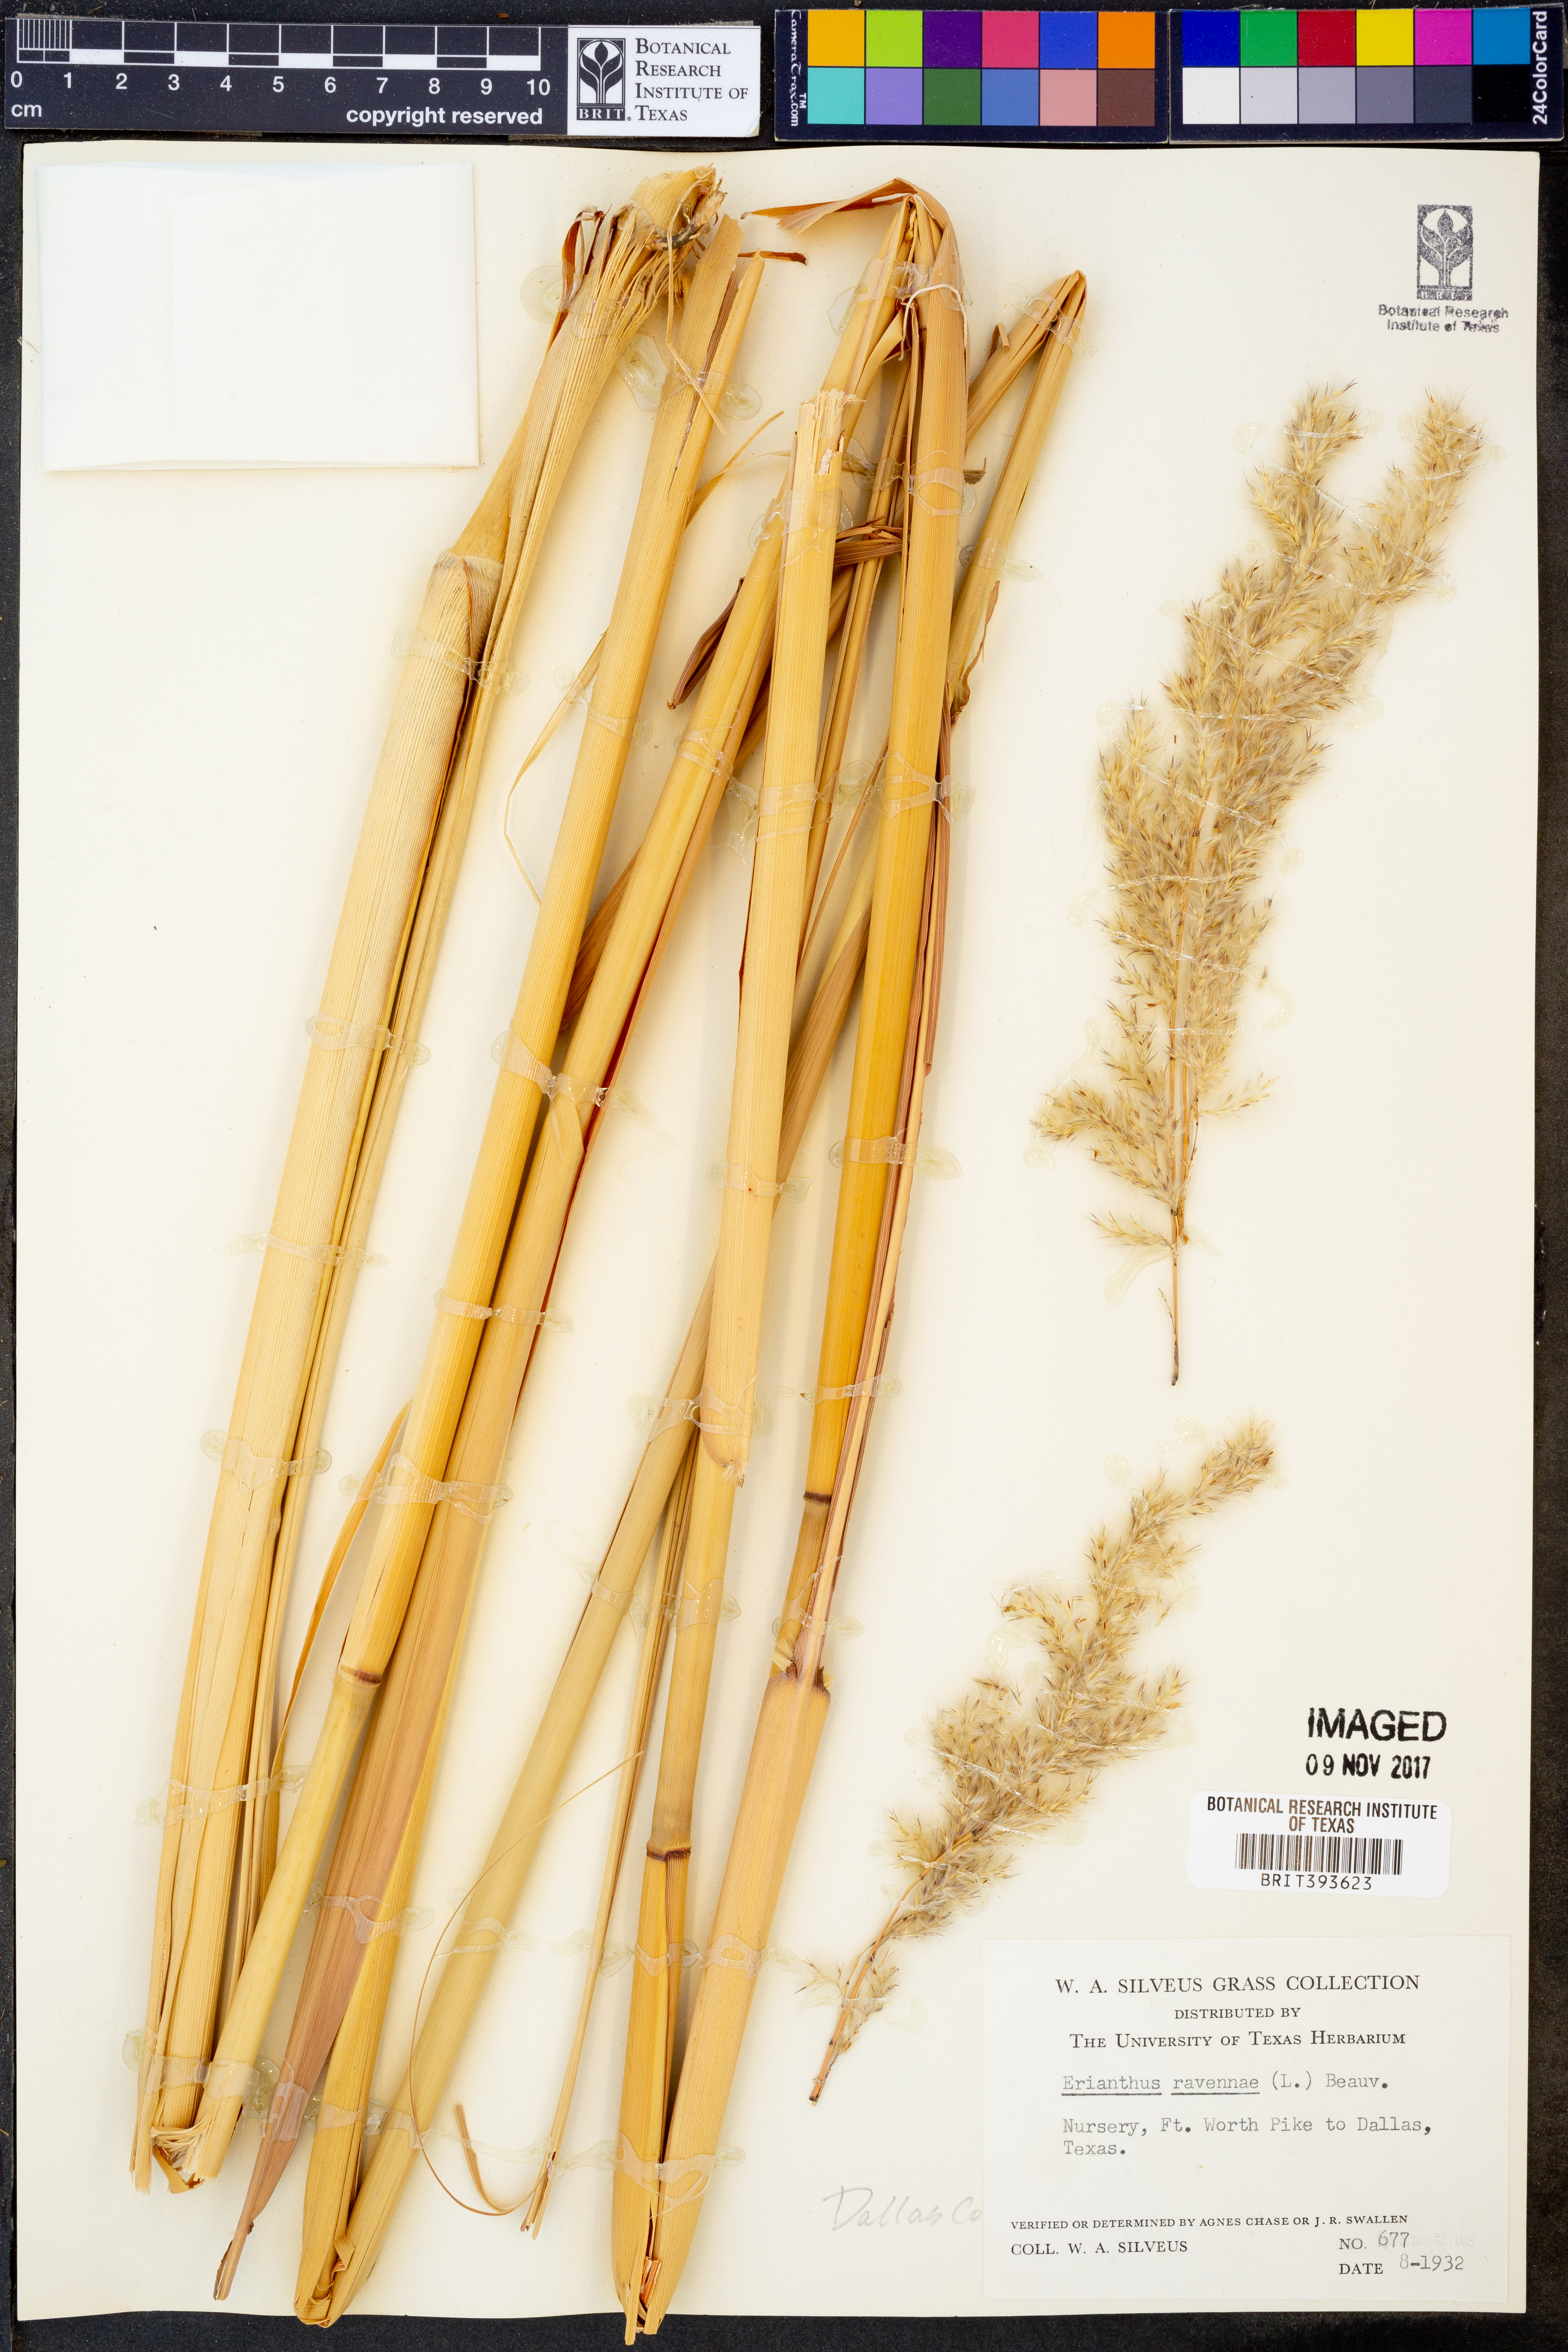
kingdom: Plantae
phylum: Tracheophyta
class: Liliopsida
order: Poales
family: Poaceae
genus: Tripidium
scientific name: Tripidium ravennae
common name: Ravenna grass
